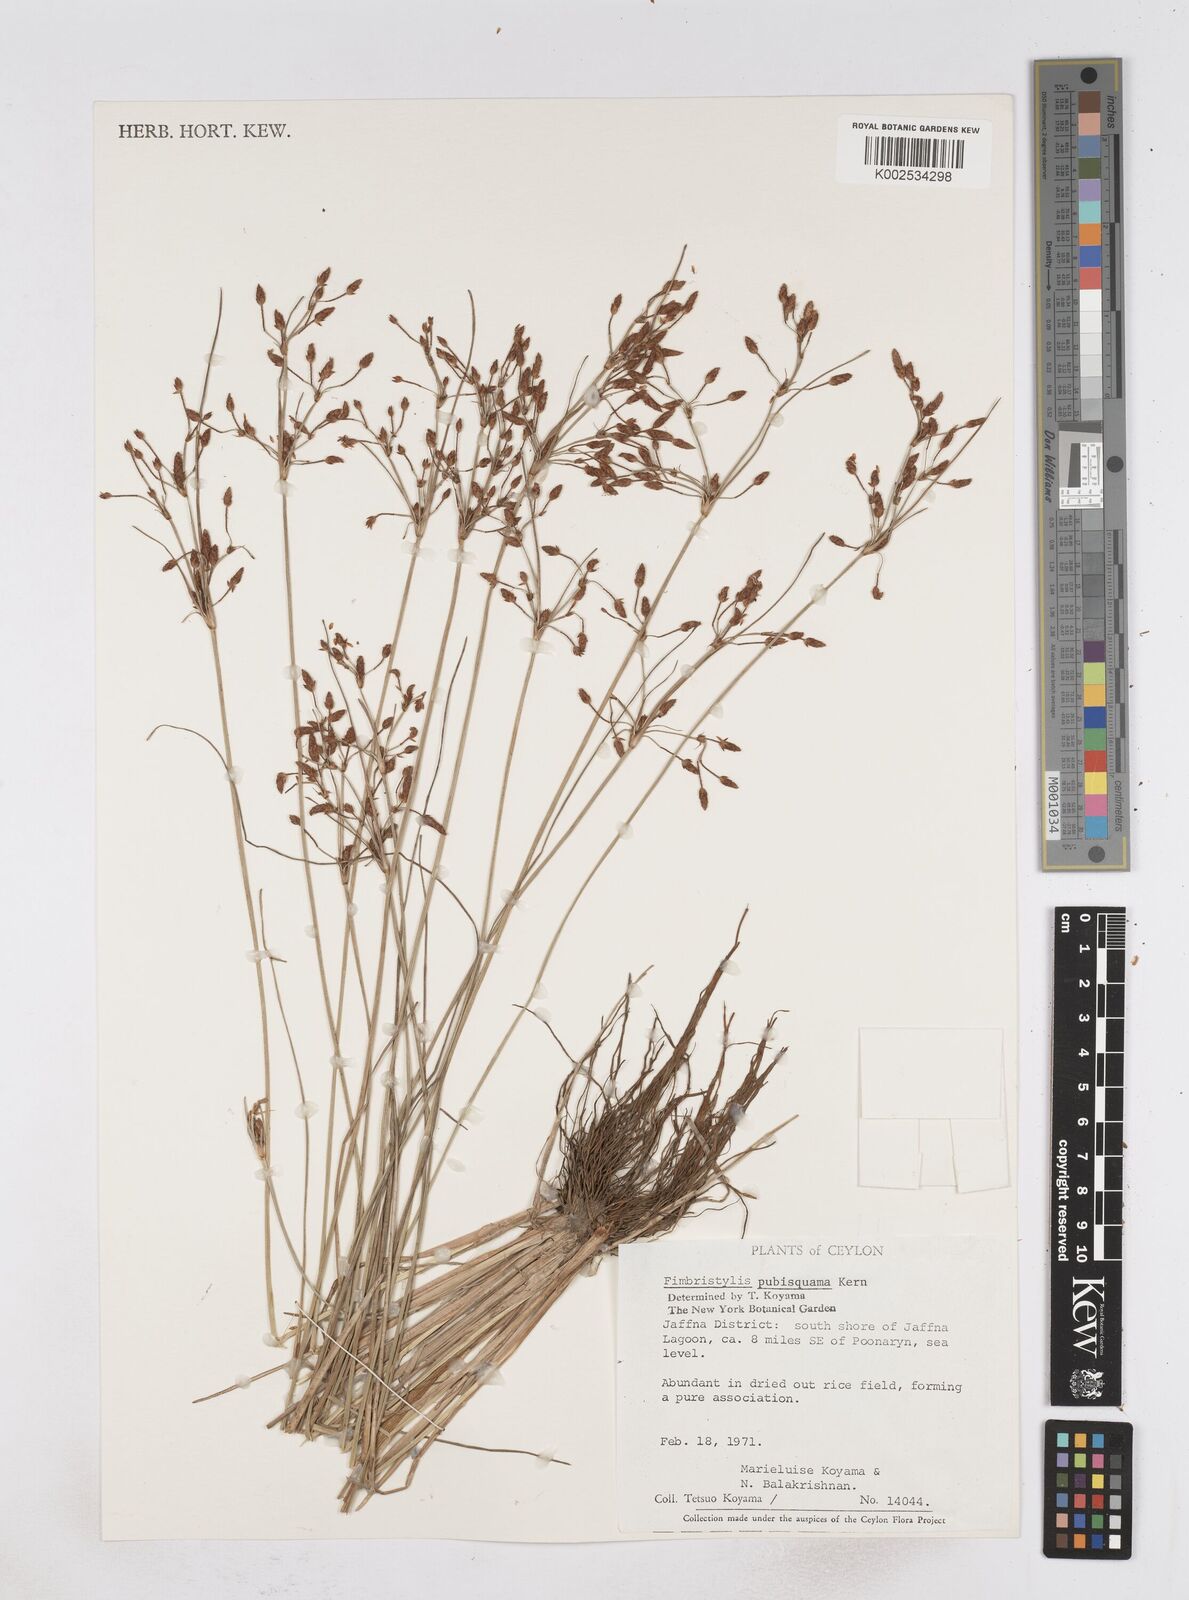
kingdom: Plantae
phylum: Tracheophyta
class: Liliopsida
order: Poales
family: Cyperaceae
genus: Fimbristylis
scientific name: Fimbristylis pubisquama
